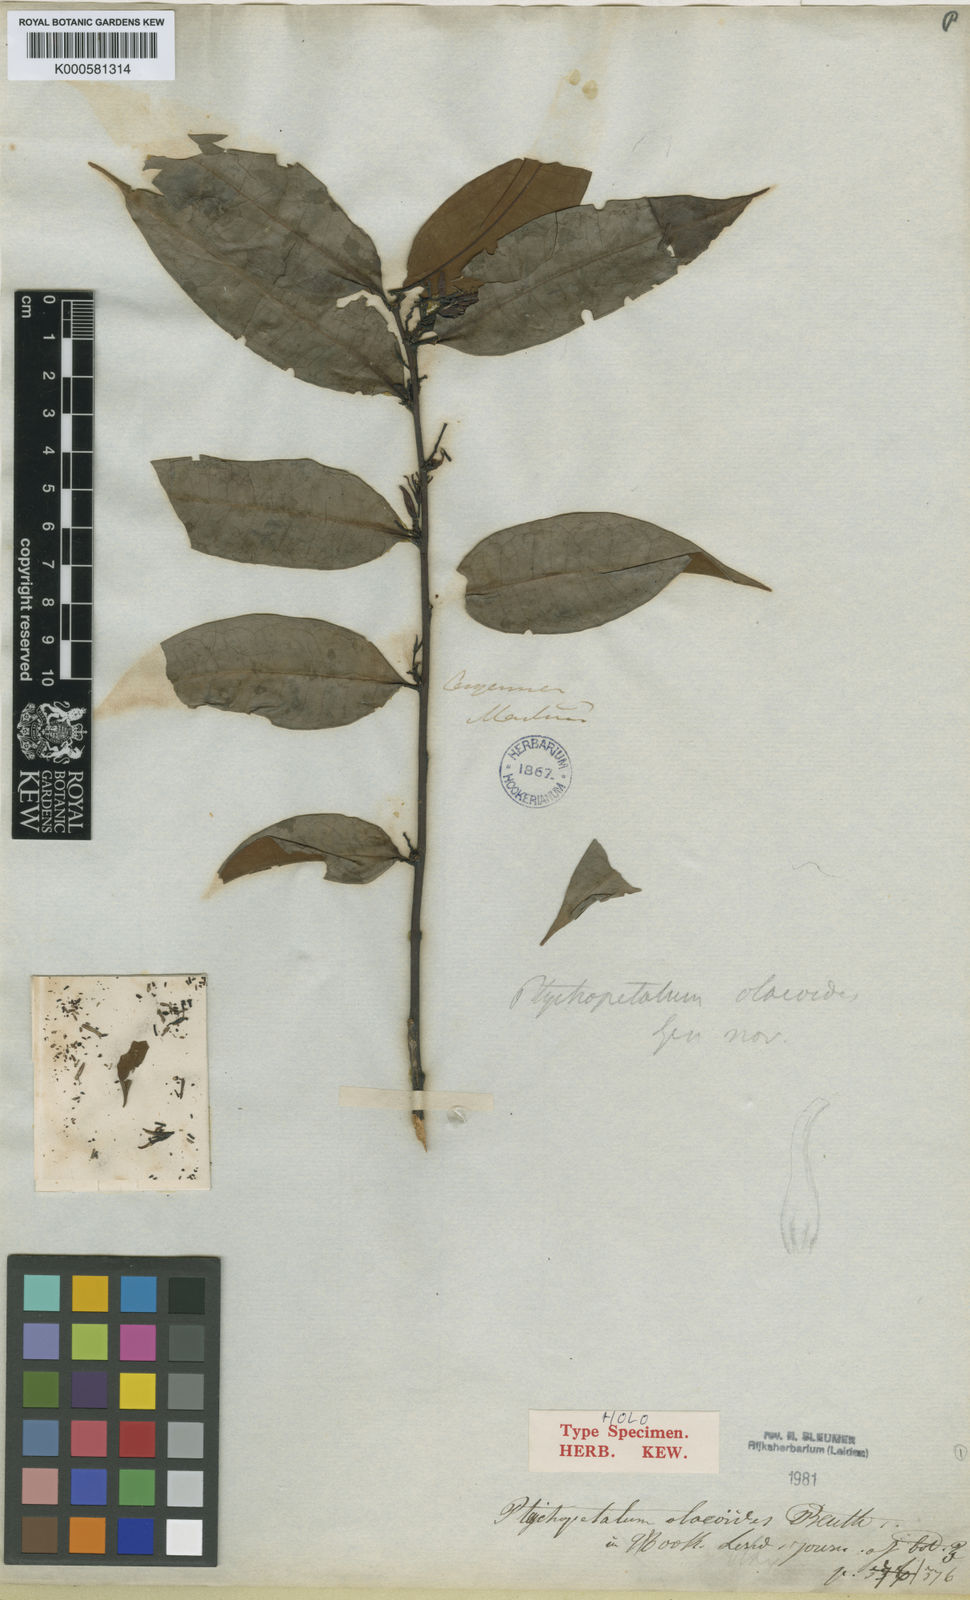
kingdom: Plantae
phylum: Tracheophyta
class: Magnoliopsida
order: Santalales
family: Olacaceae
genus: Ptychopetalum
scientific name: Ptychopetalum olacoides
